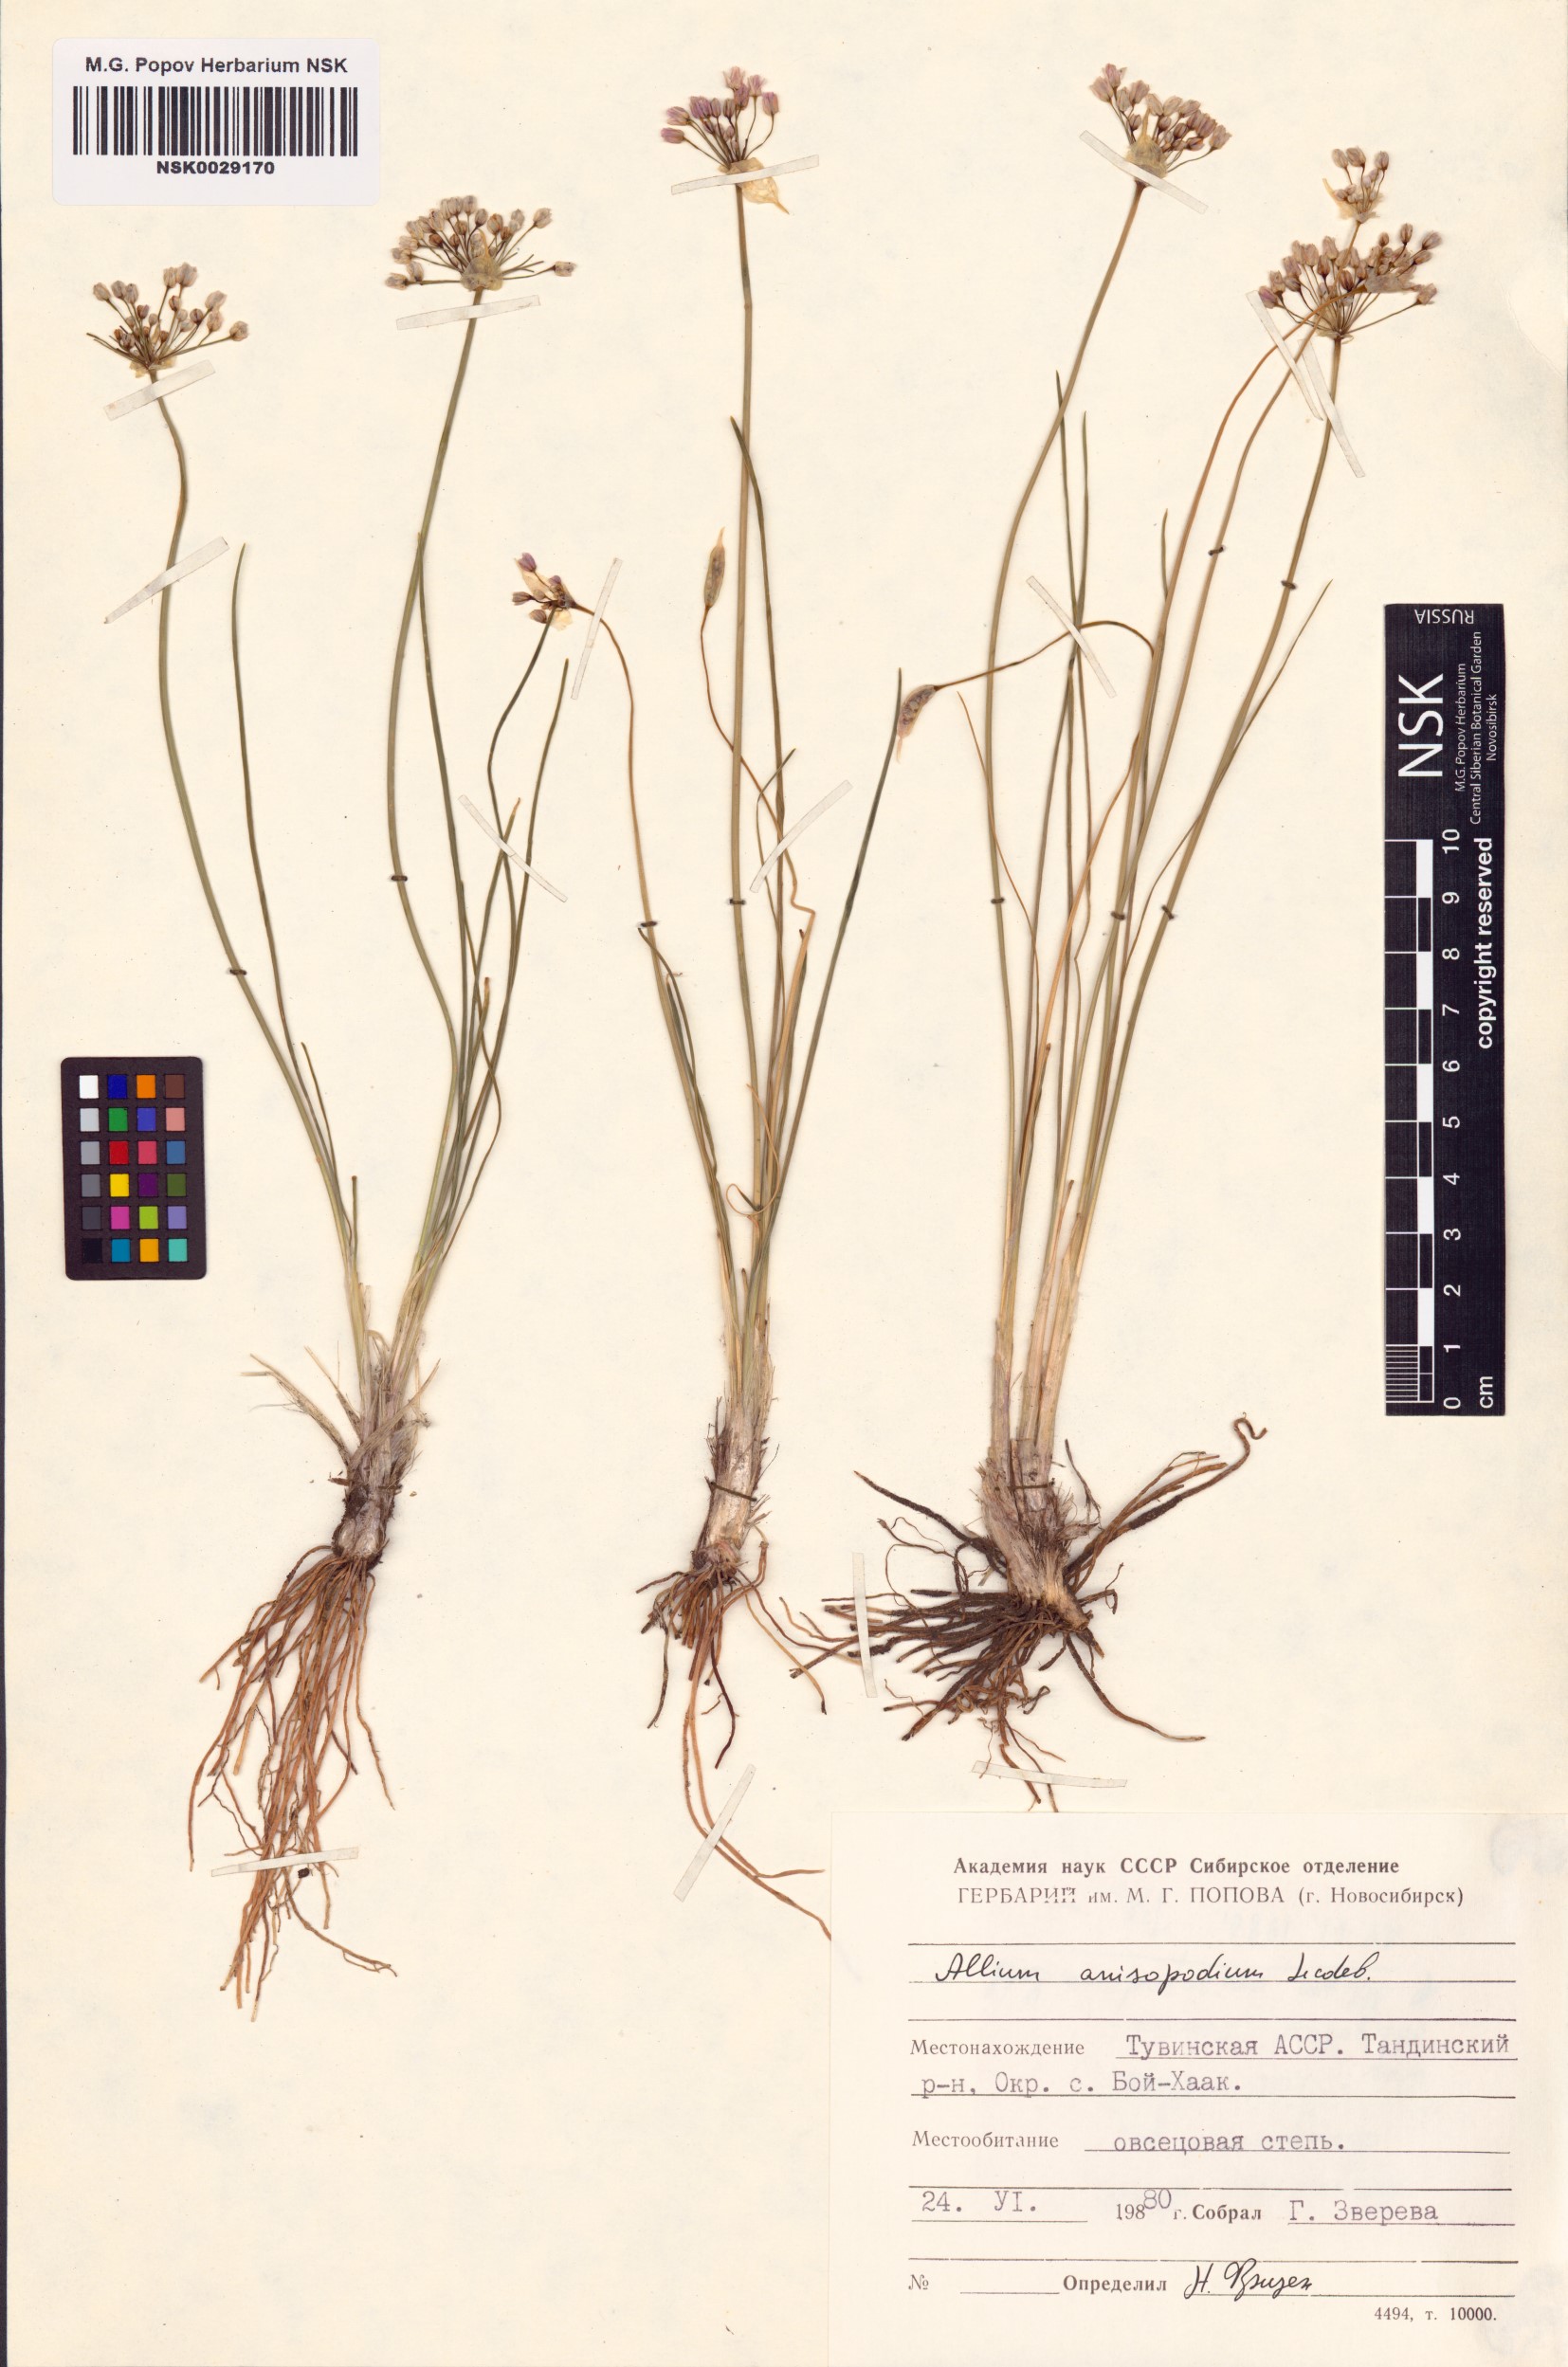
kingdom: Plantae
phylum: Tracheophyta
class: Liliopsida
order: Asparagales
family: Amaryllidaceae
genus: Allium
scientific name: Allium anisopodium
